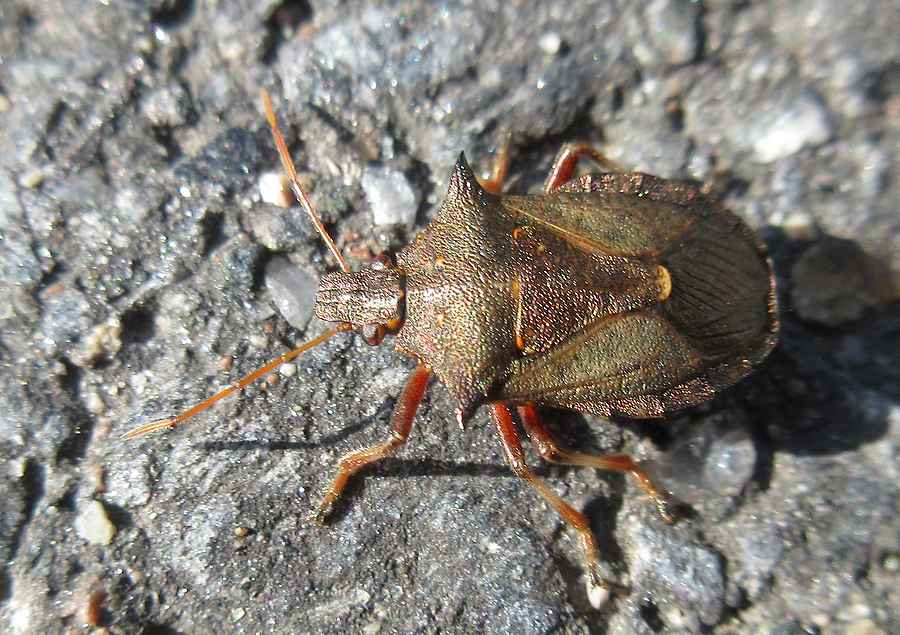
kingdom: Animalia
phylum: Arthropoda
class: Insecta
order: Hemiptera
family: Pentatomidae
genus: Picromerus
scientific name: Picromerus bidens
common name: Spiked shieldbug
